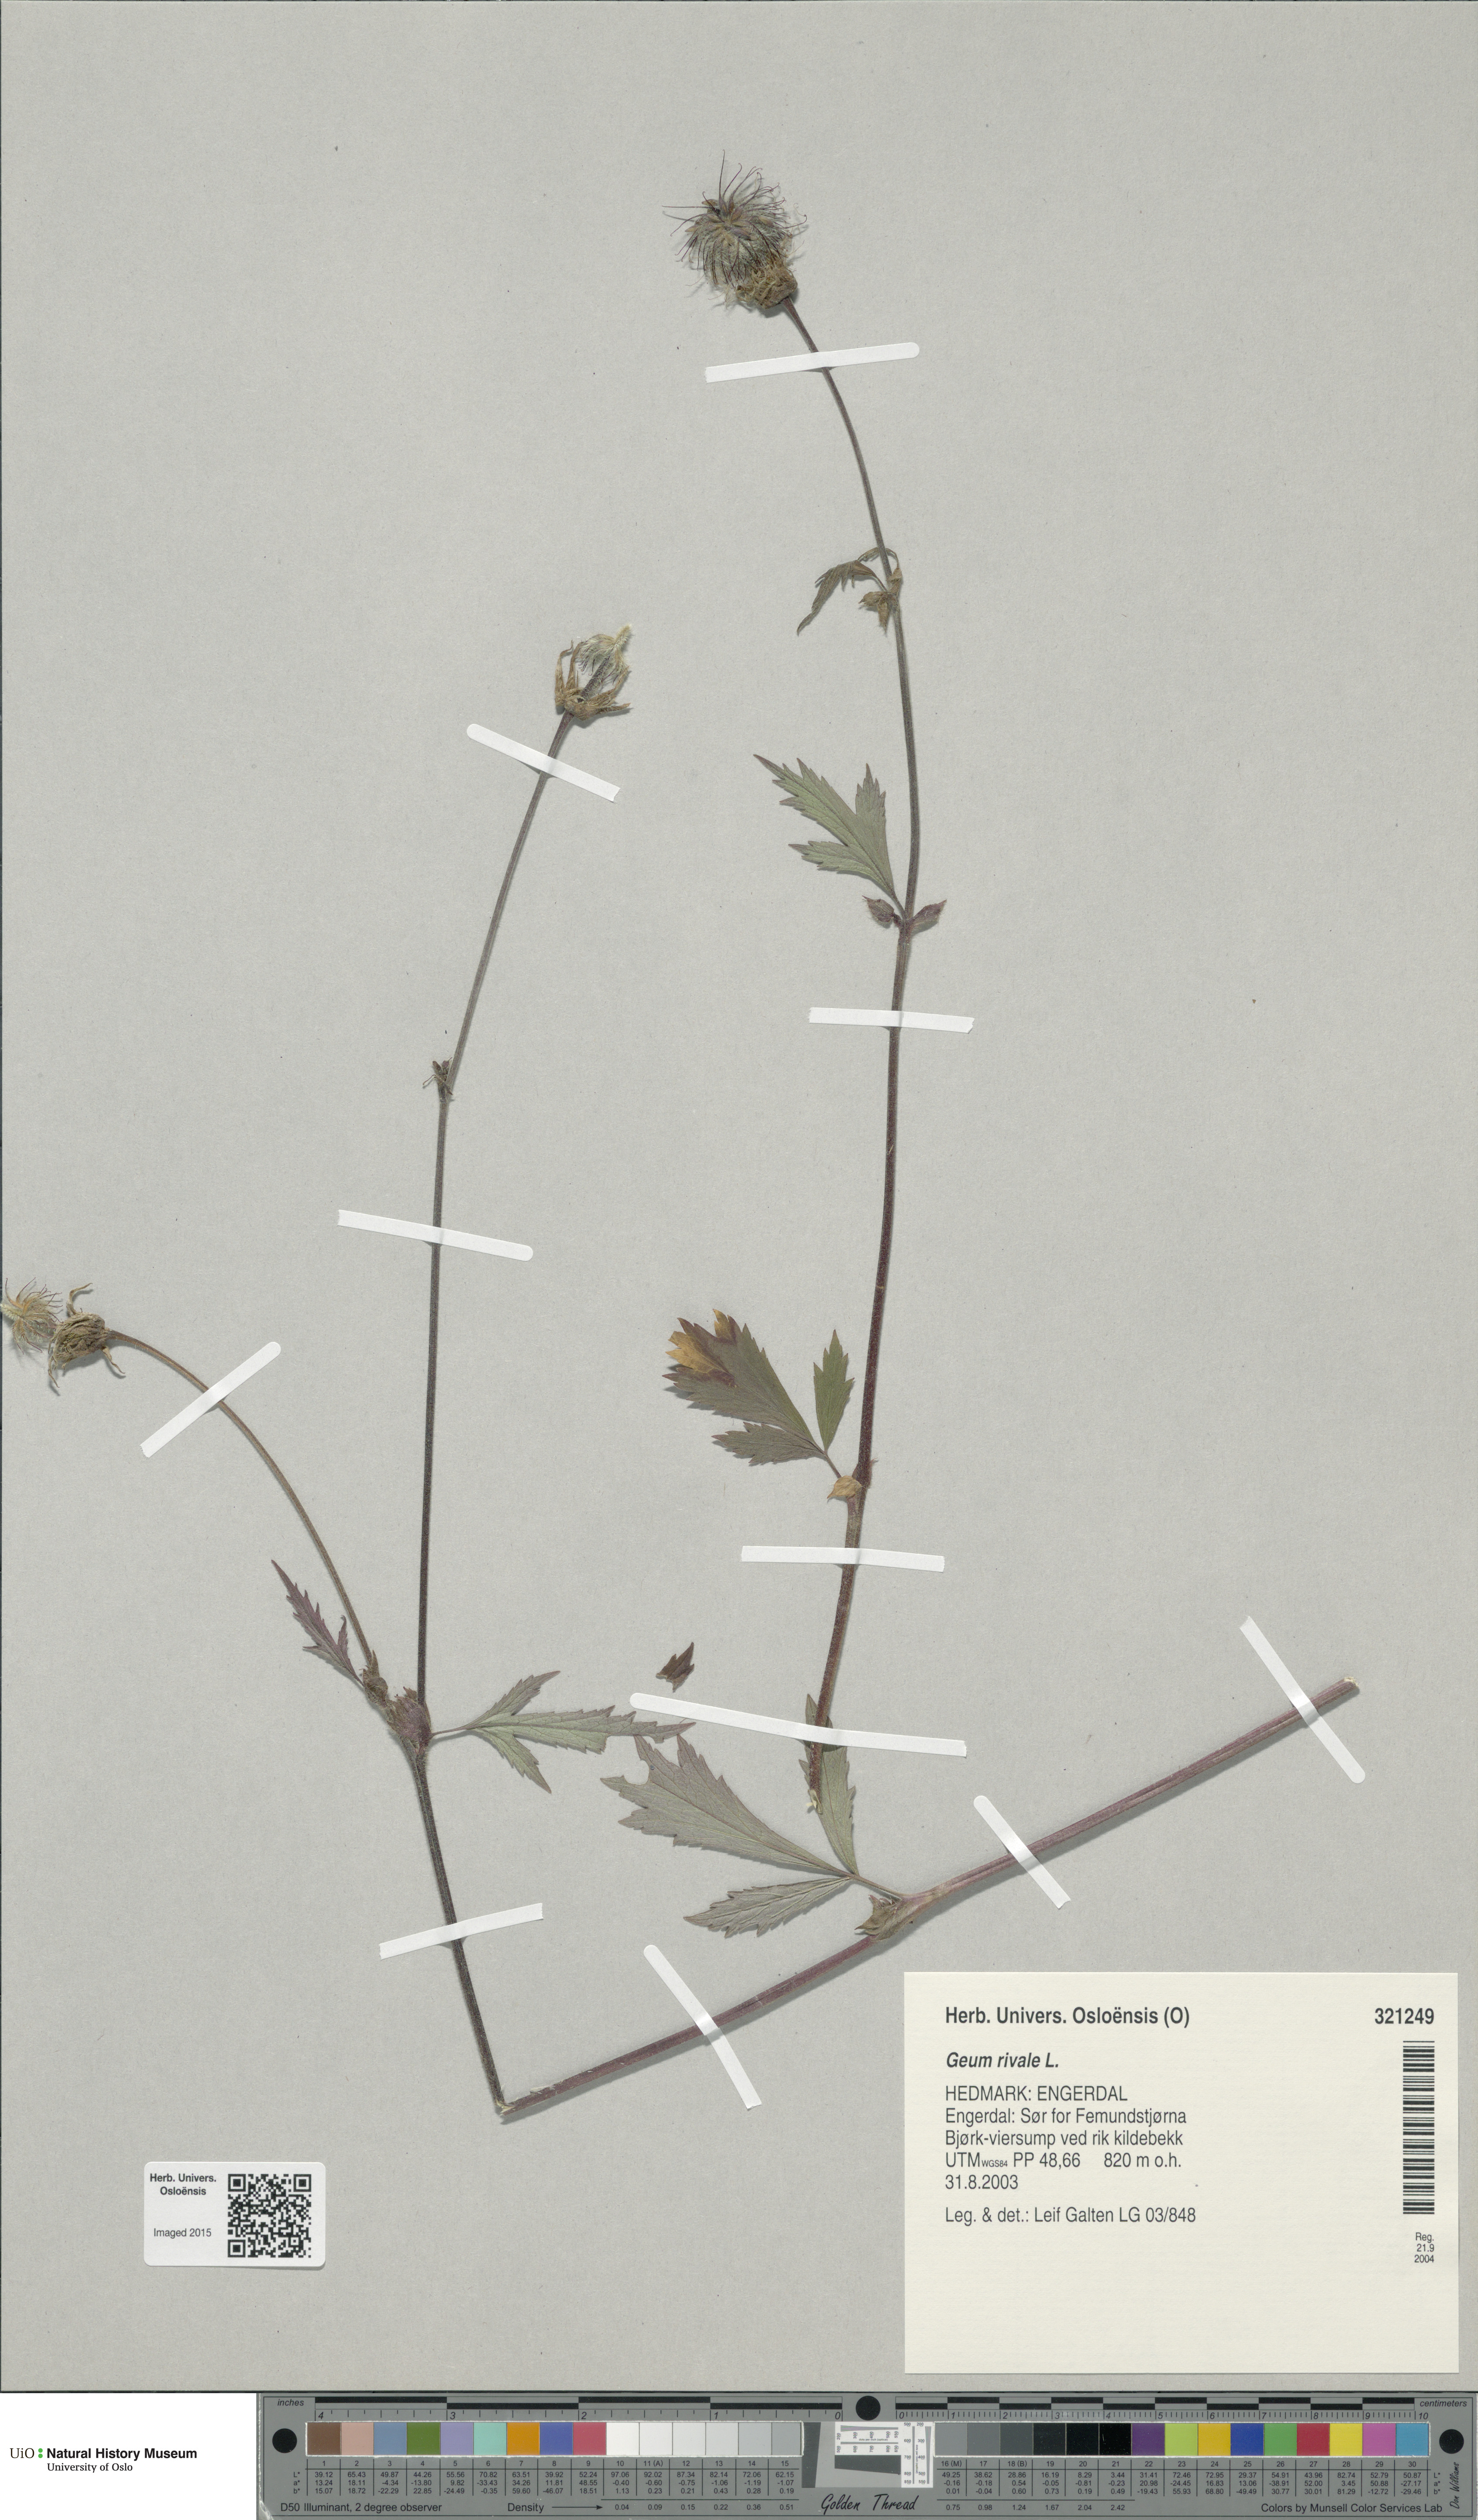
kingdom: Plantae
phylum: Tracheophyta
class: Magnoliopsida
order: Rosales
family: Rosaceae
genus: Geum
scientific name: Geum rivale
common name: Water avens
